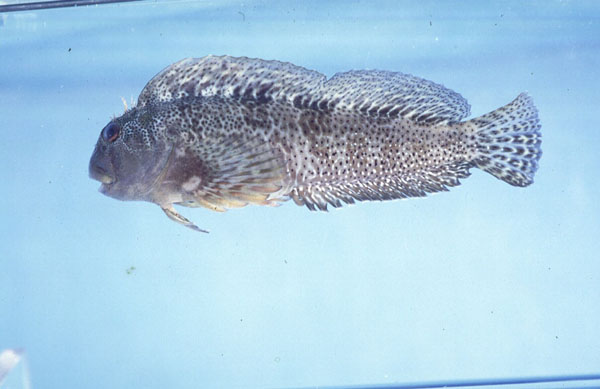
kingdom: Animalia
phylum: Chordata
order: Perciformes
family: Blenniidae
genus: Scartella
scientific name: Scartella emarginata
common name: Maned blenny
